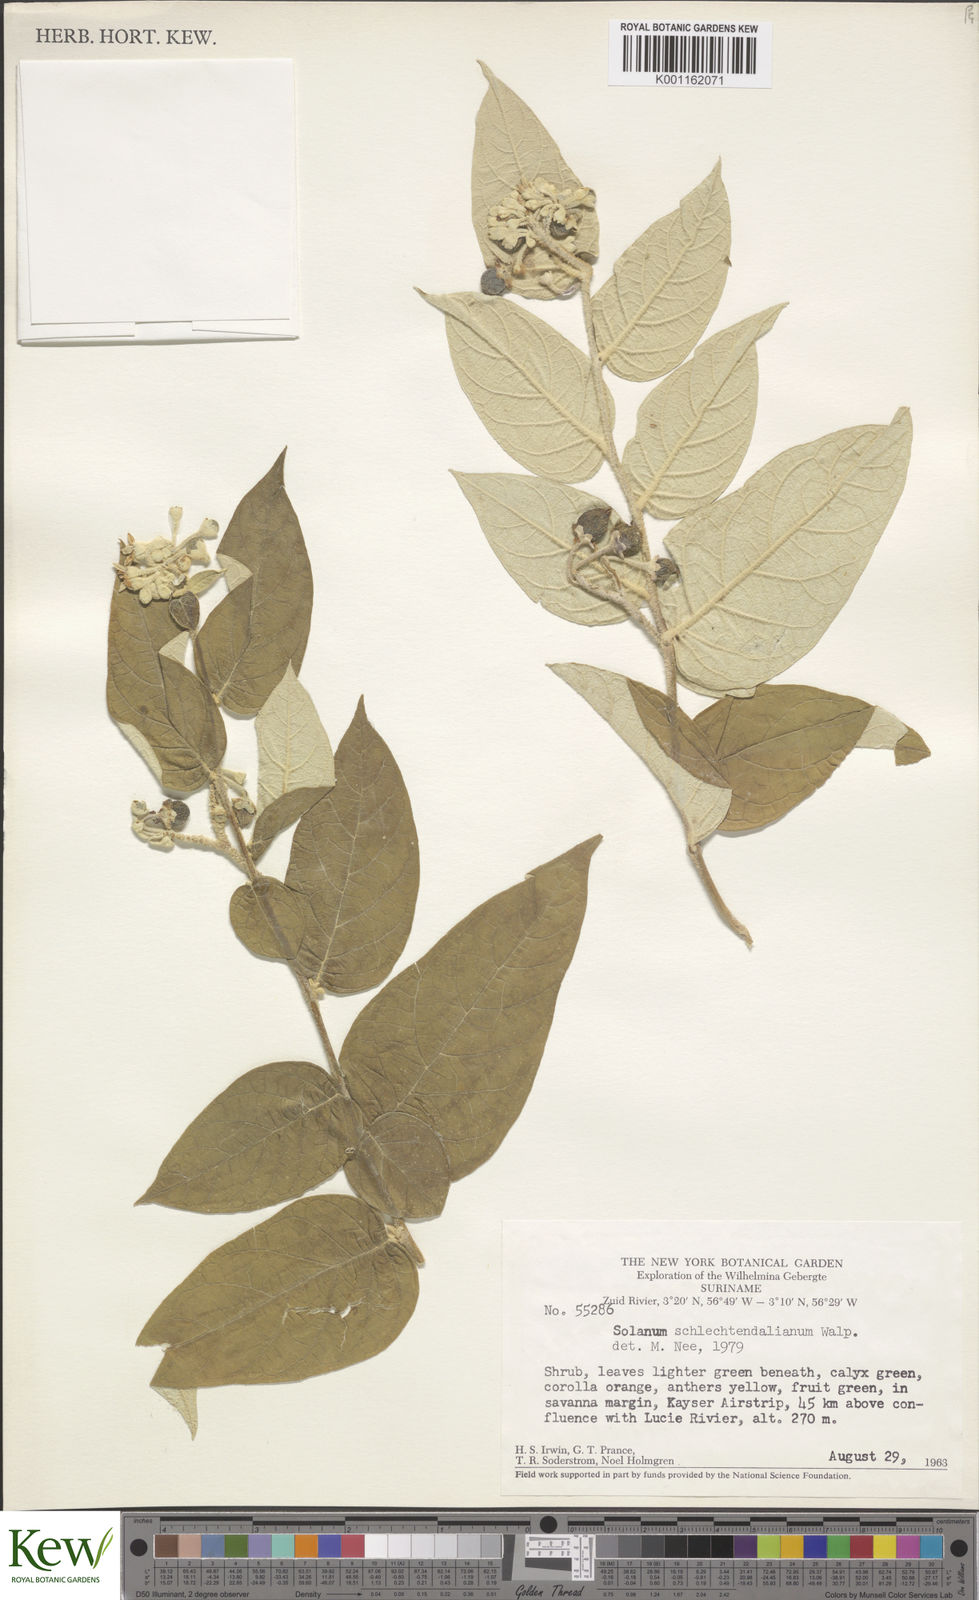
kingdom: Plantae
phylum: Tracheophyta
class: Magnoliopsida
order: Solanales
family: Solanaceae
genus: Solanum
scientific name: Solanum schlechtendalianum
